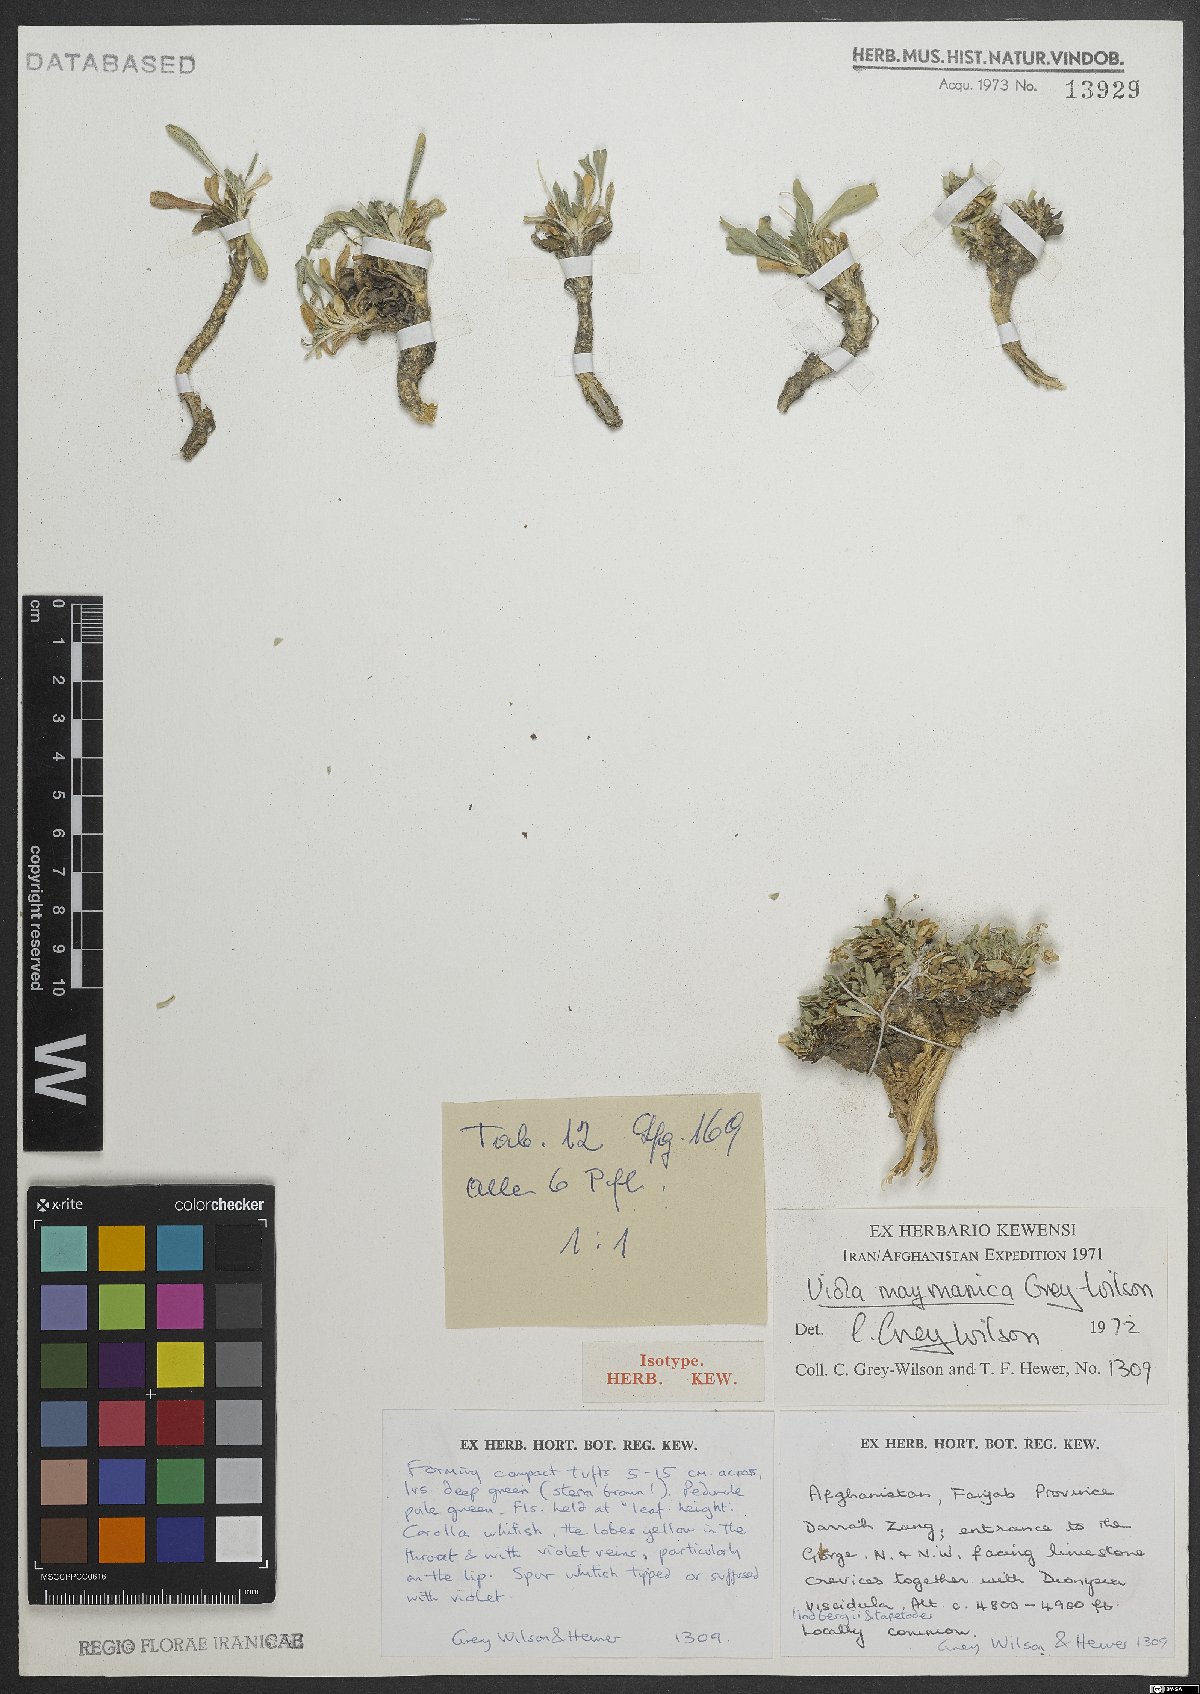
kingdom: Plantae
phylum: Tracheophyta
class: Magnoliopsida
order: Malpighiales
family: Violaceae
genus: Viola
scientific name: Viola maymanica
